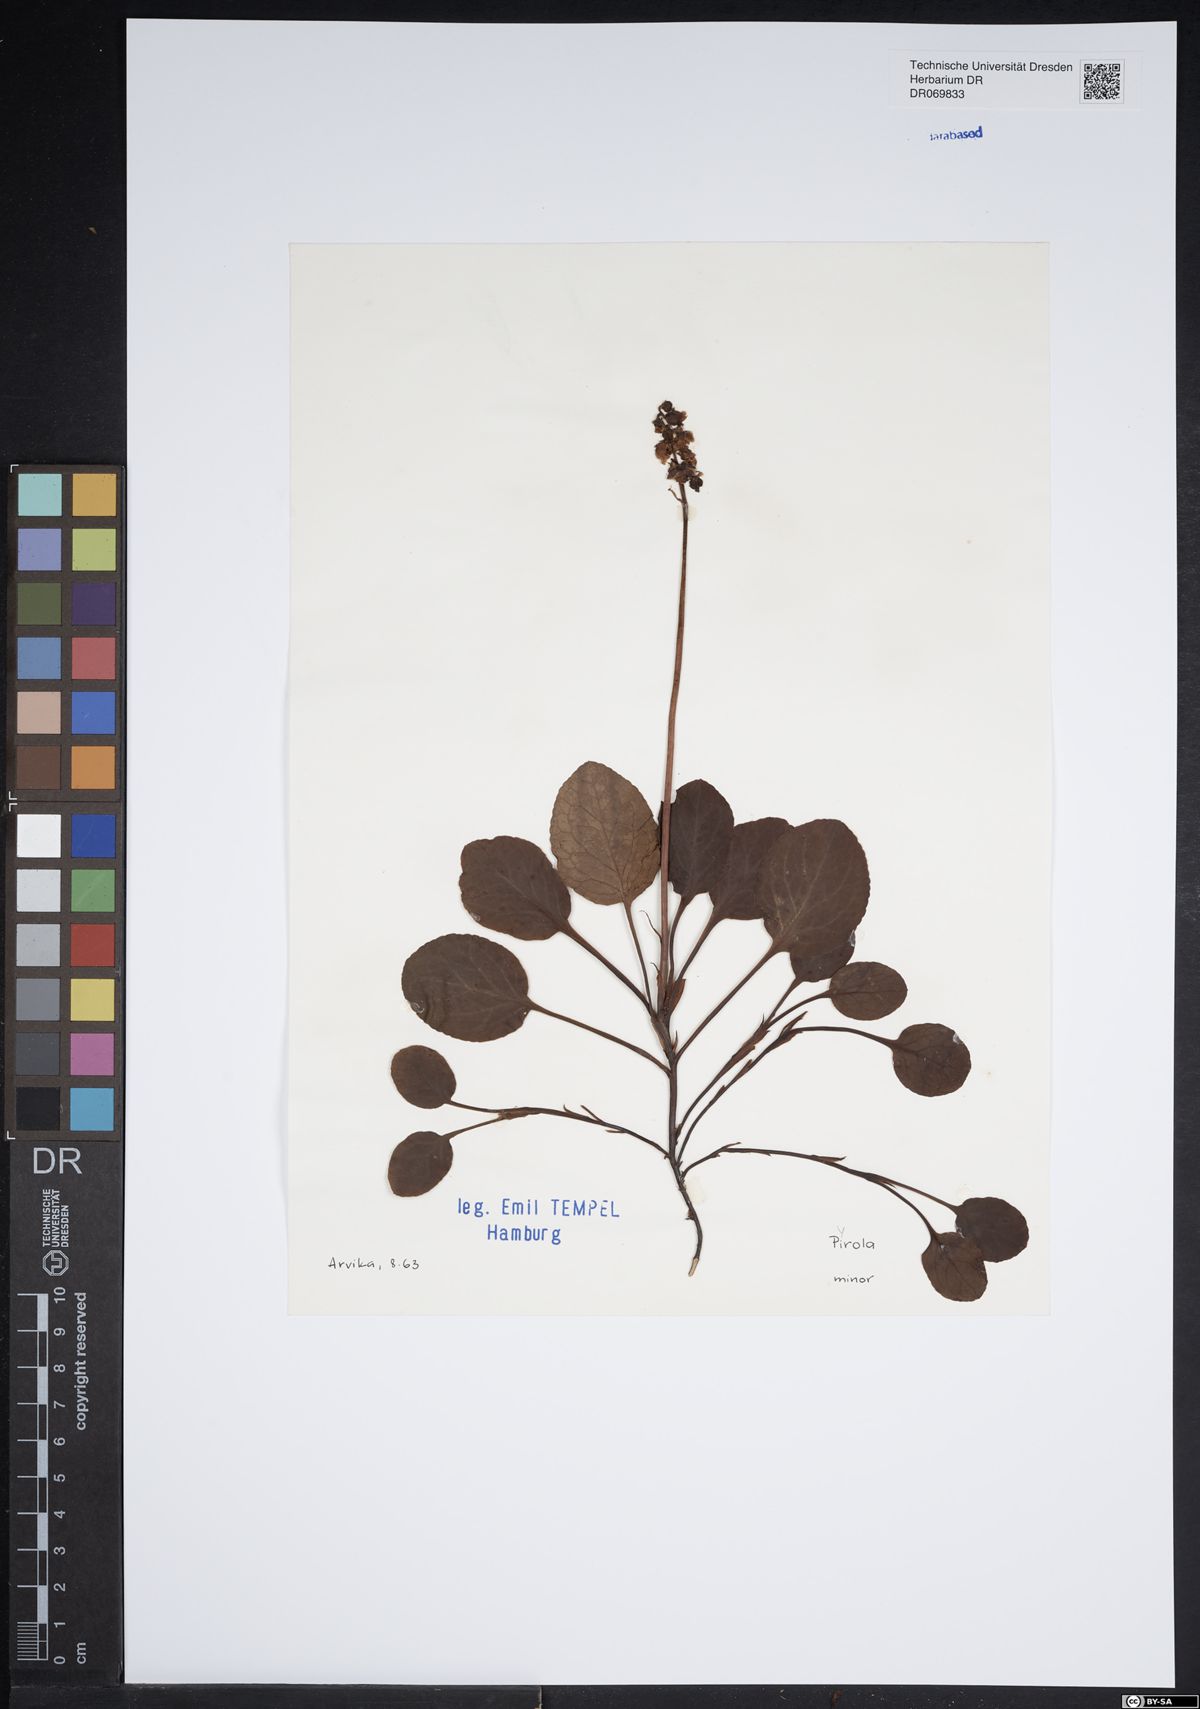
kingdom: Plantae
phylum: Tracheophyta
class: Magnoliopsida
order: Ericales
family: Ericaceae
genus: Pyrola
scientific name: Pyrola minor
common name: Common wintergreen
